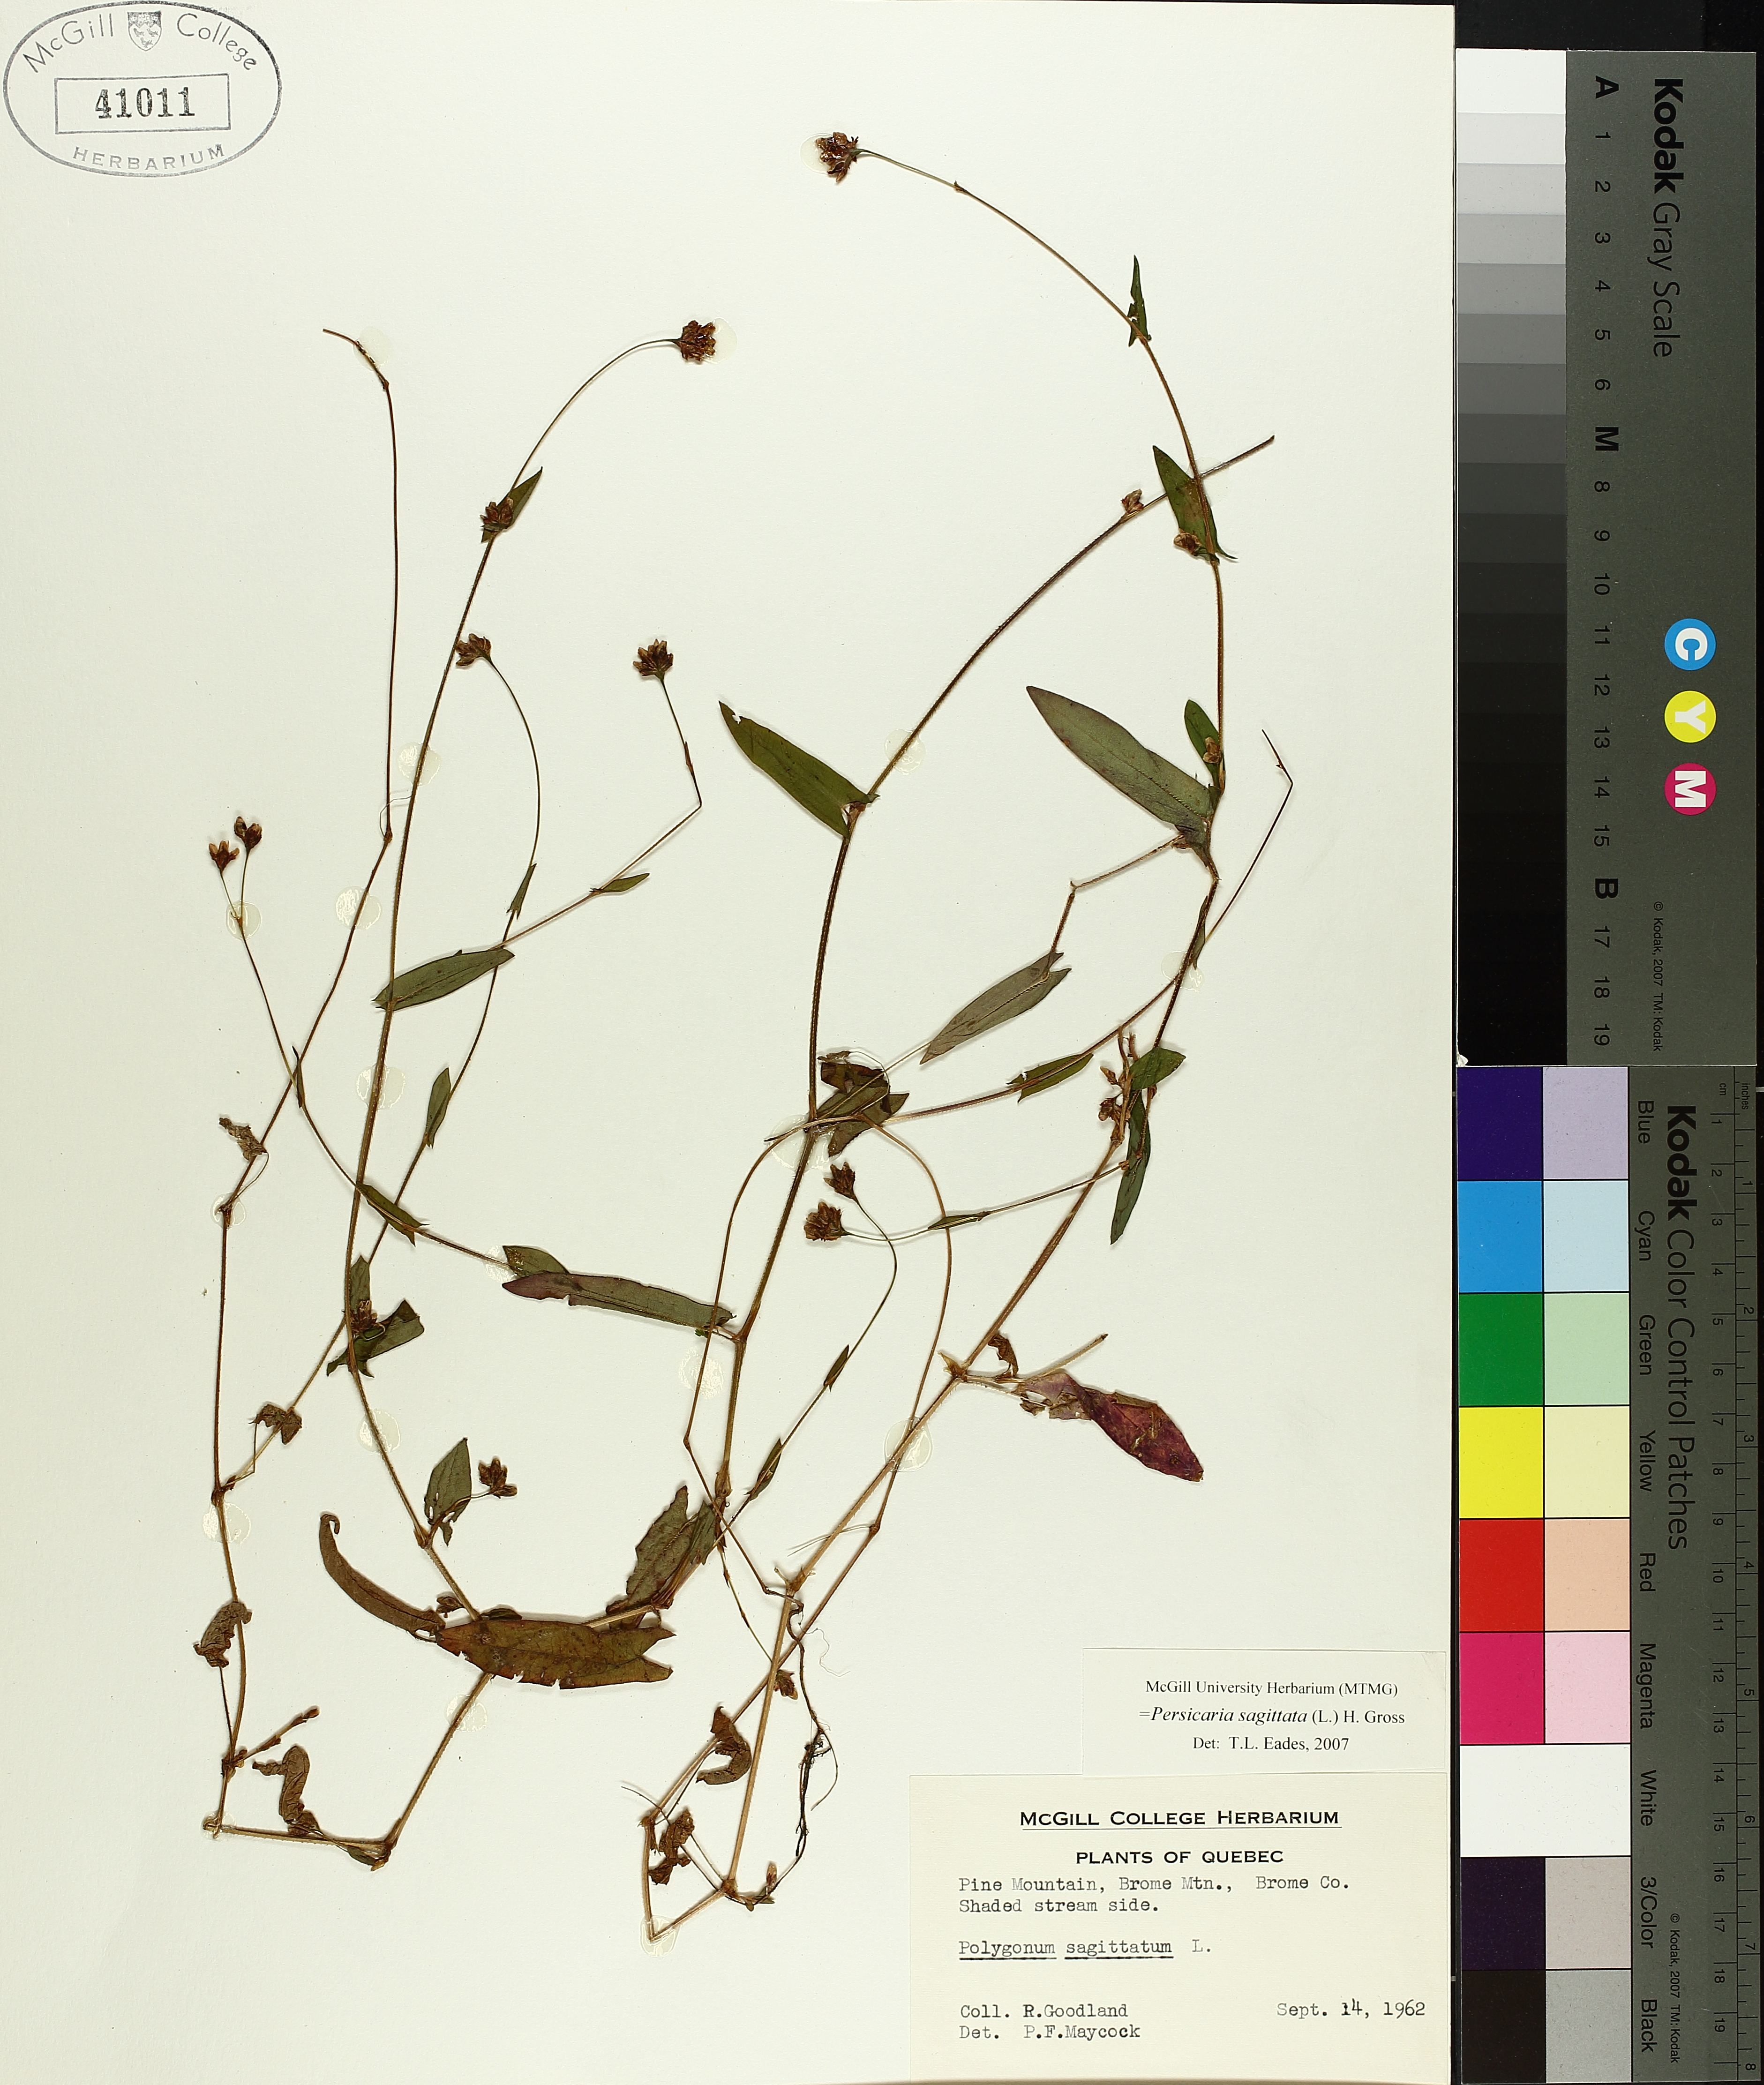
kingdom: Plantae
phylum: Tracheophyta
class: Magnoliopsida
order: Caryophyllales
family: Polygonaceae
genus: Persicaria
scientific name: Persicaria sagittata
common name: American tearthumb
